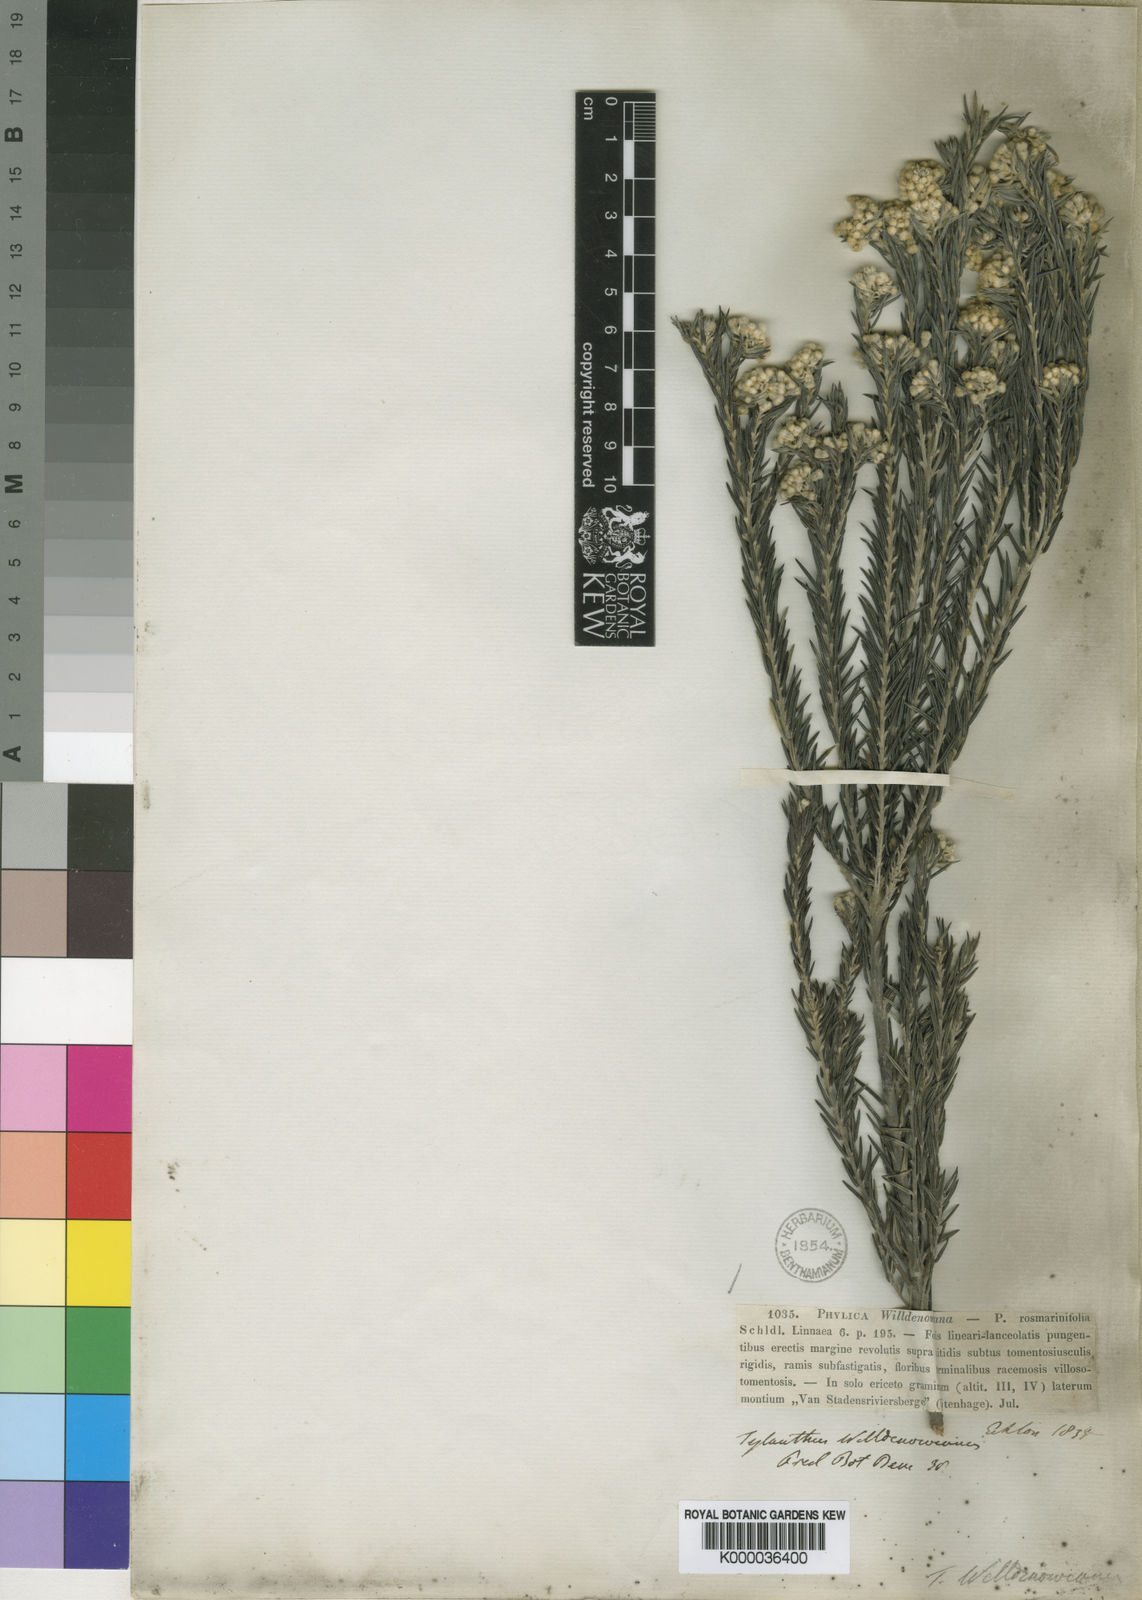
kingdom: Plantae
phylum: Tracheophyta
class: Magnoliopsida
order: Rosales
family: Rhamnaceae
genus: Phylica
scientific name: Phylica willdenowiana
